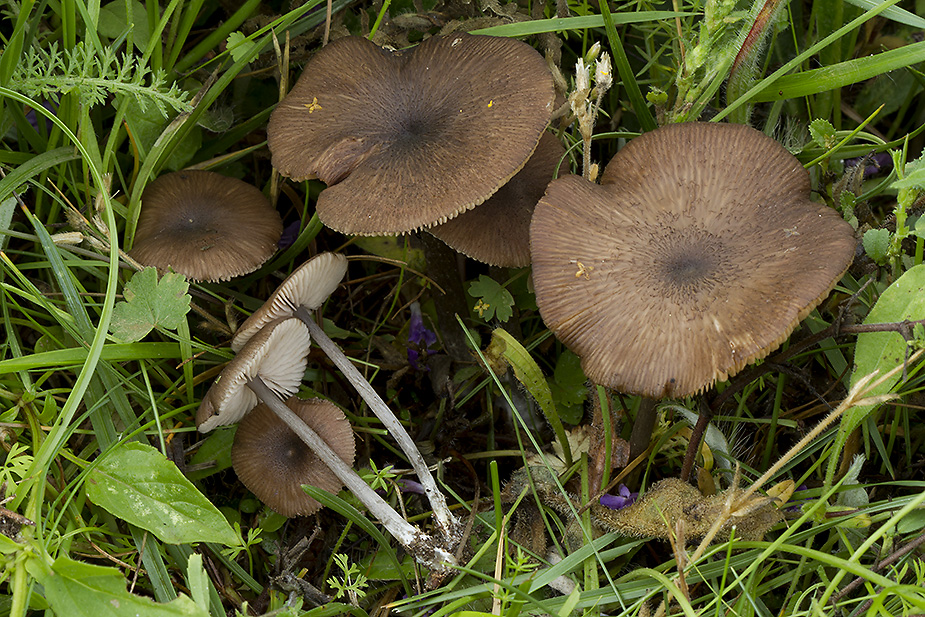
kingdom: Fungi
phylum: Basidiomycota
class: Agaricomycetes
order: Agaricales
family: Entolomataceae
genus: Entoloma
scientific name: Entoloma porphyrogriseum
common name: porfyrgrå rødblad
